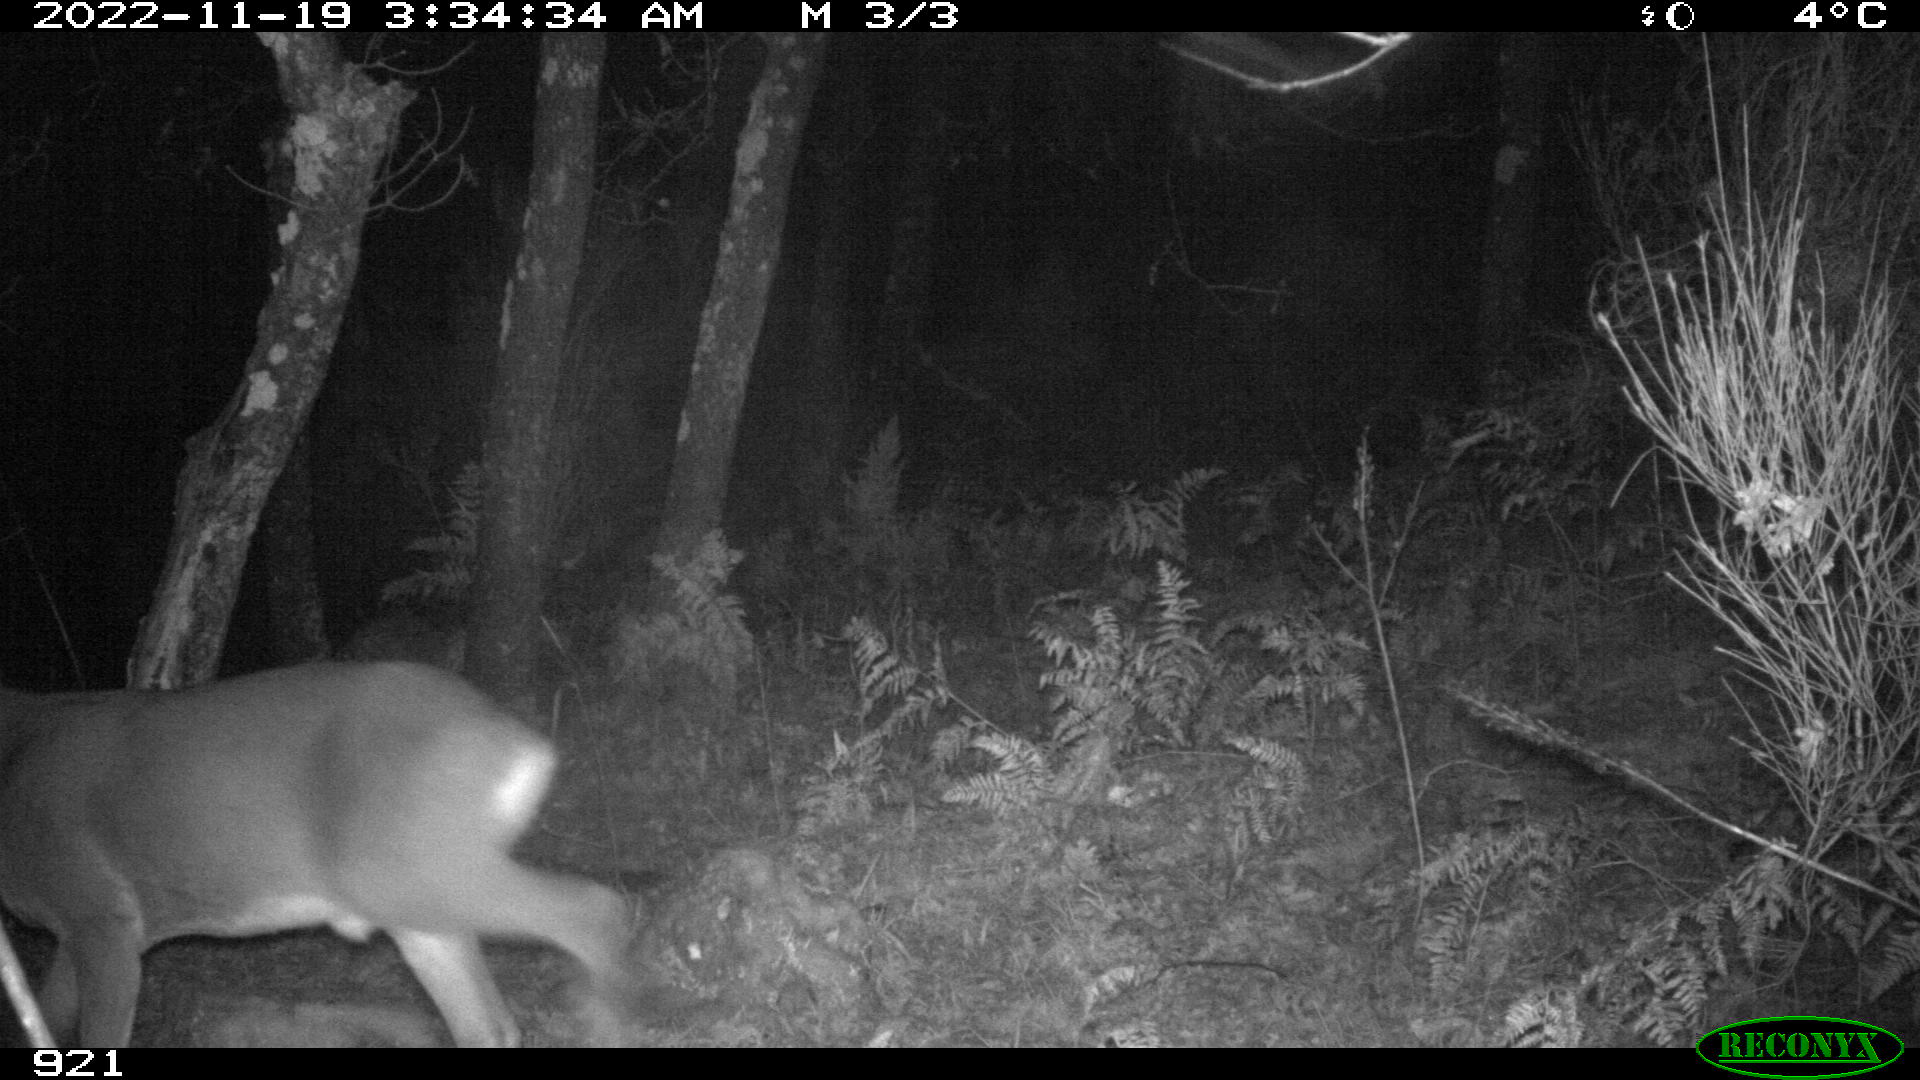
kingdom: Animalia
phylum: Chordata
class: Mammalia
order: Artiodactyla
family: Cervidae
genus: Capreolus
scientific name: Capreolus capreolus
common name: Western roe deer
